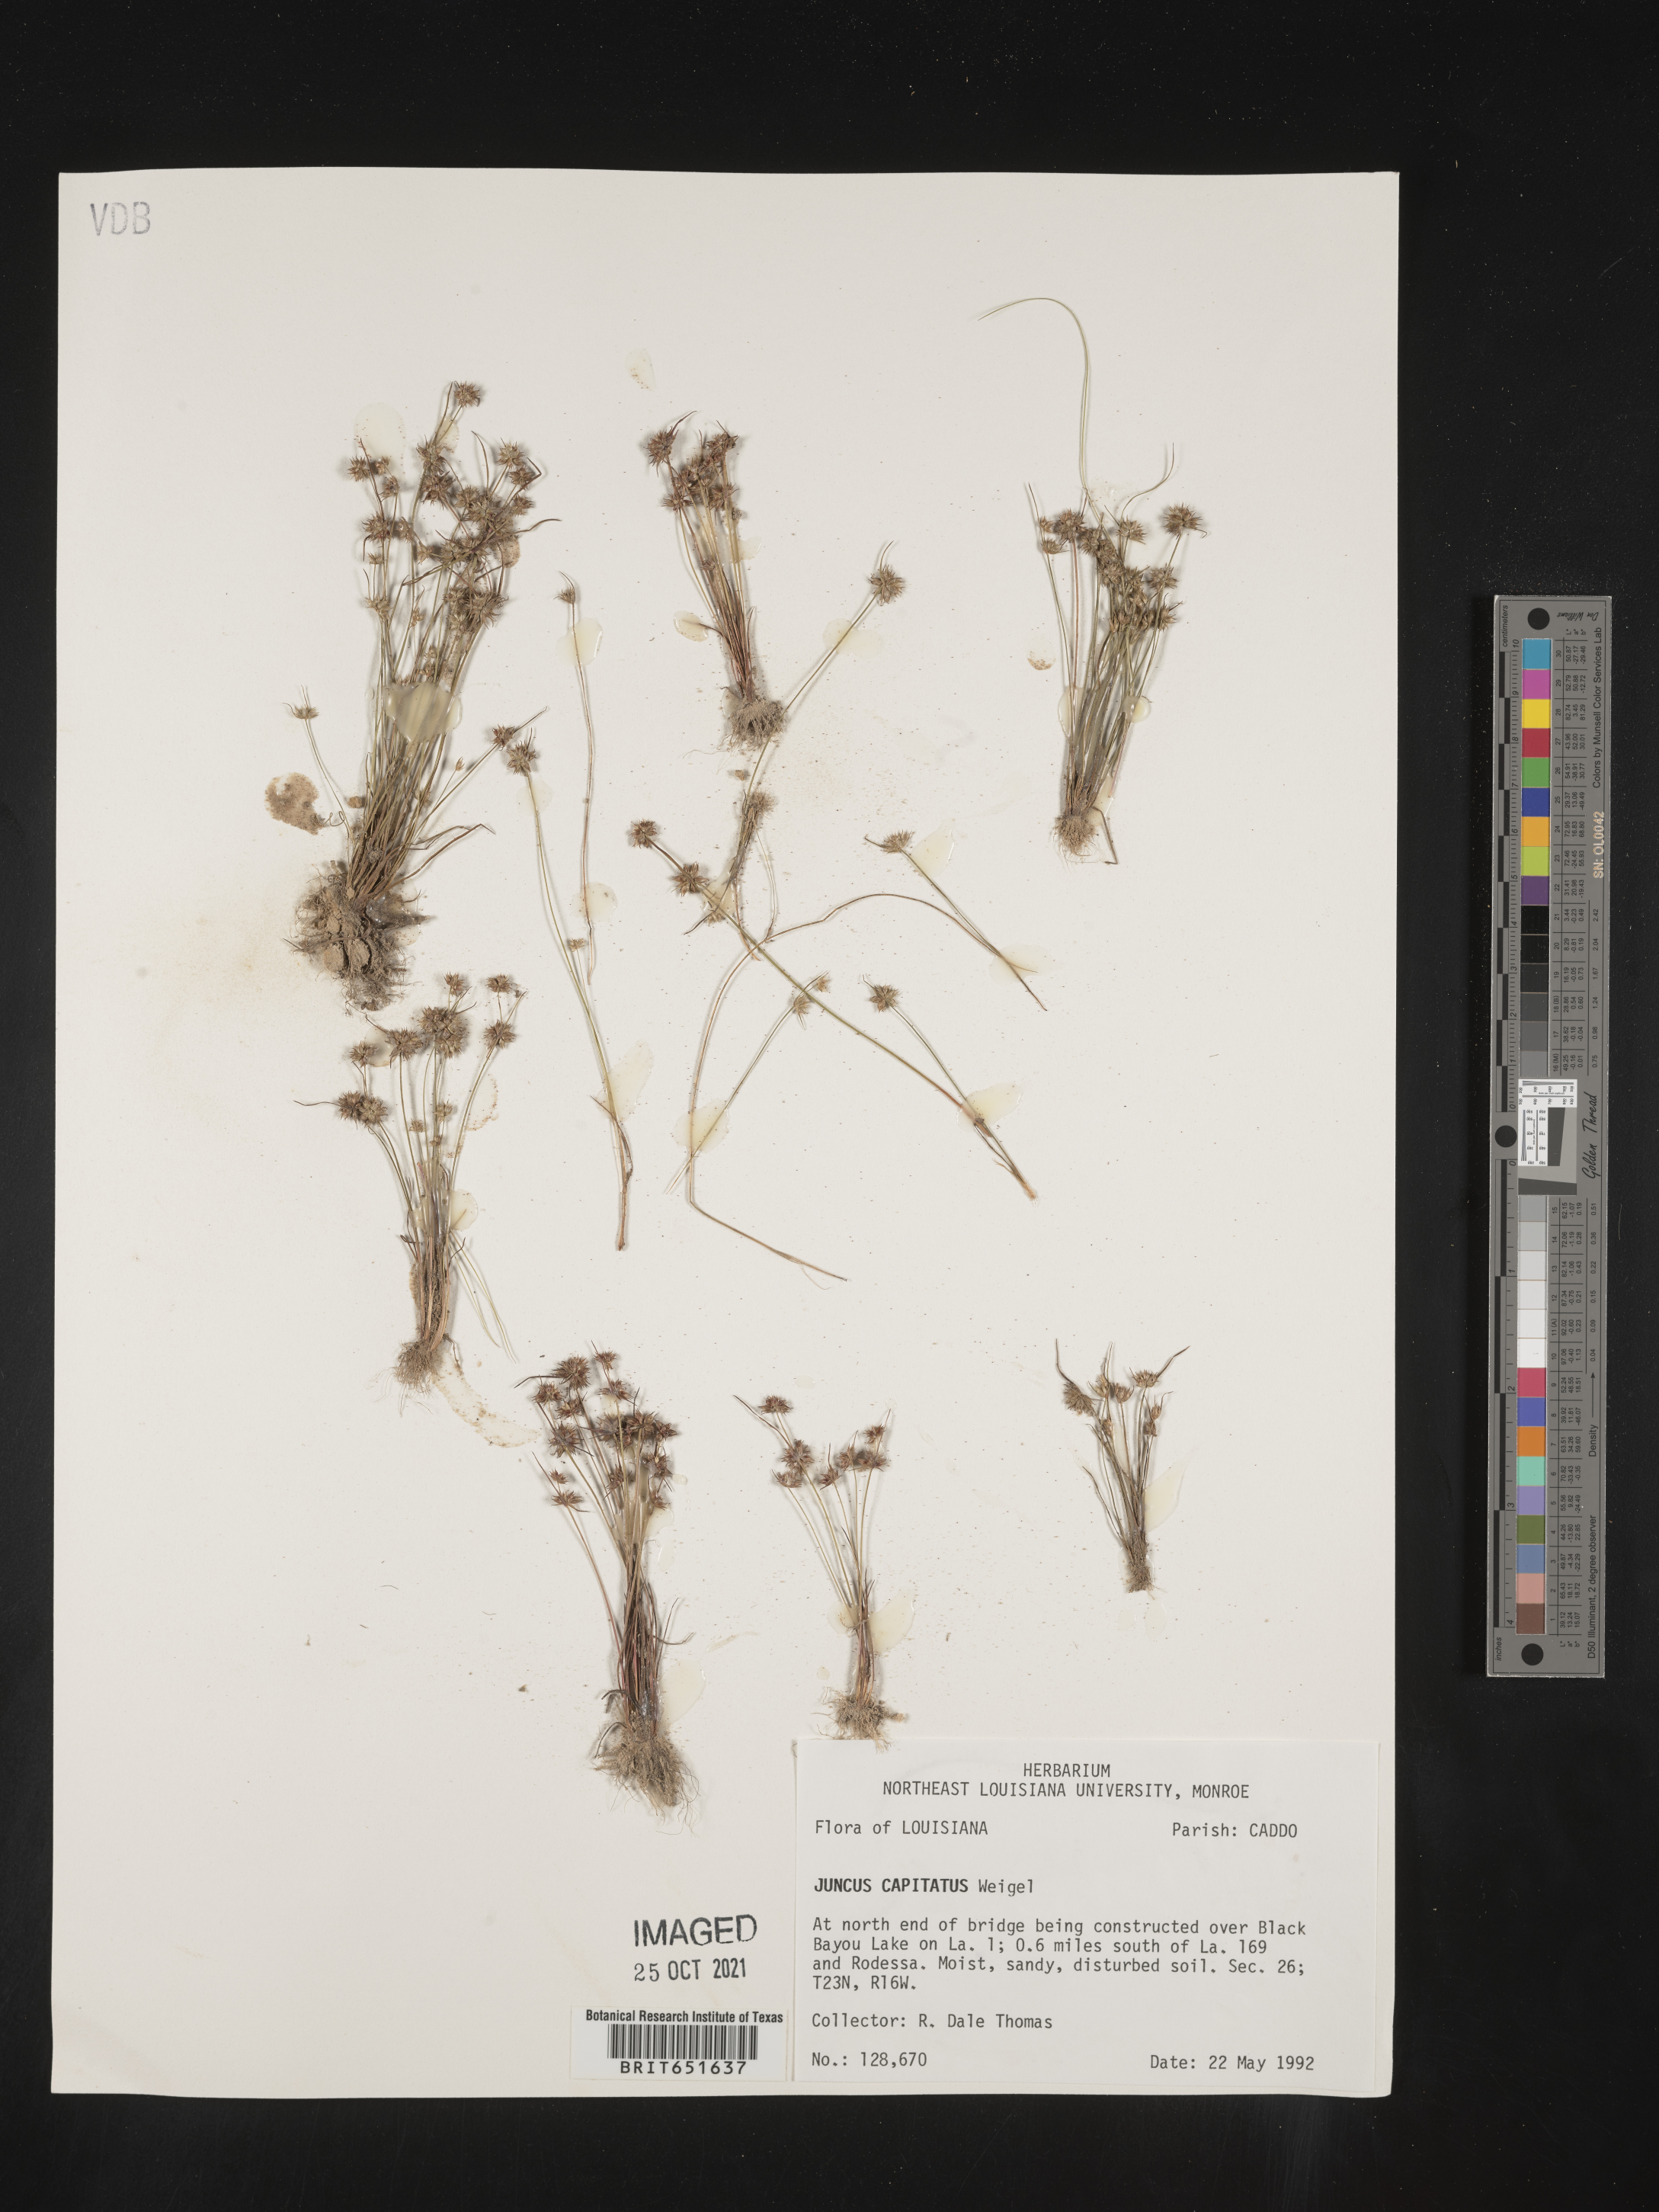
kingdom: Plantae
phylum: Tracheophyta
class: Liliopsida
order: Poales
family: Juncaceae
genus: Juncus
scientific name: Juncus capitatus
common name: Dwarf rush
